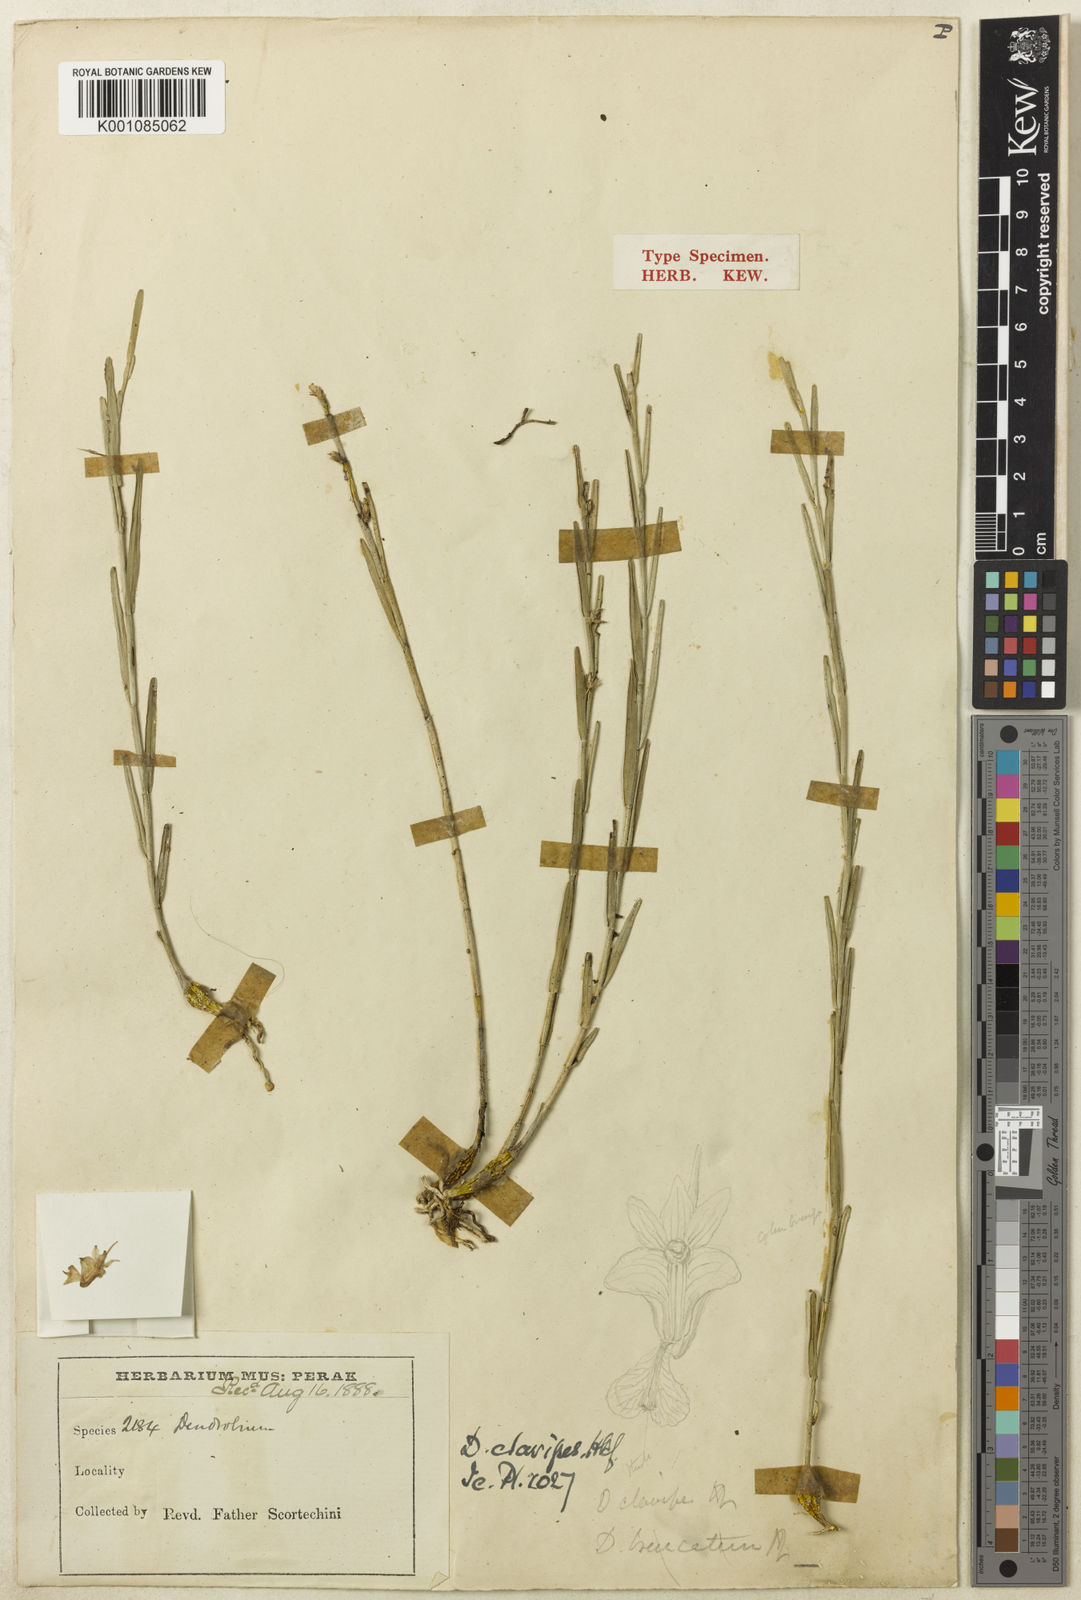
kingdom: Plantae
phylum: Tracheophyta
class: Liliopsida
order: Asparagales
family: Orchidaceae
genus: Dendrobium
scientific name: Dendrobium truncatum
